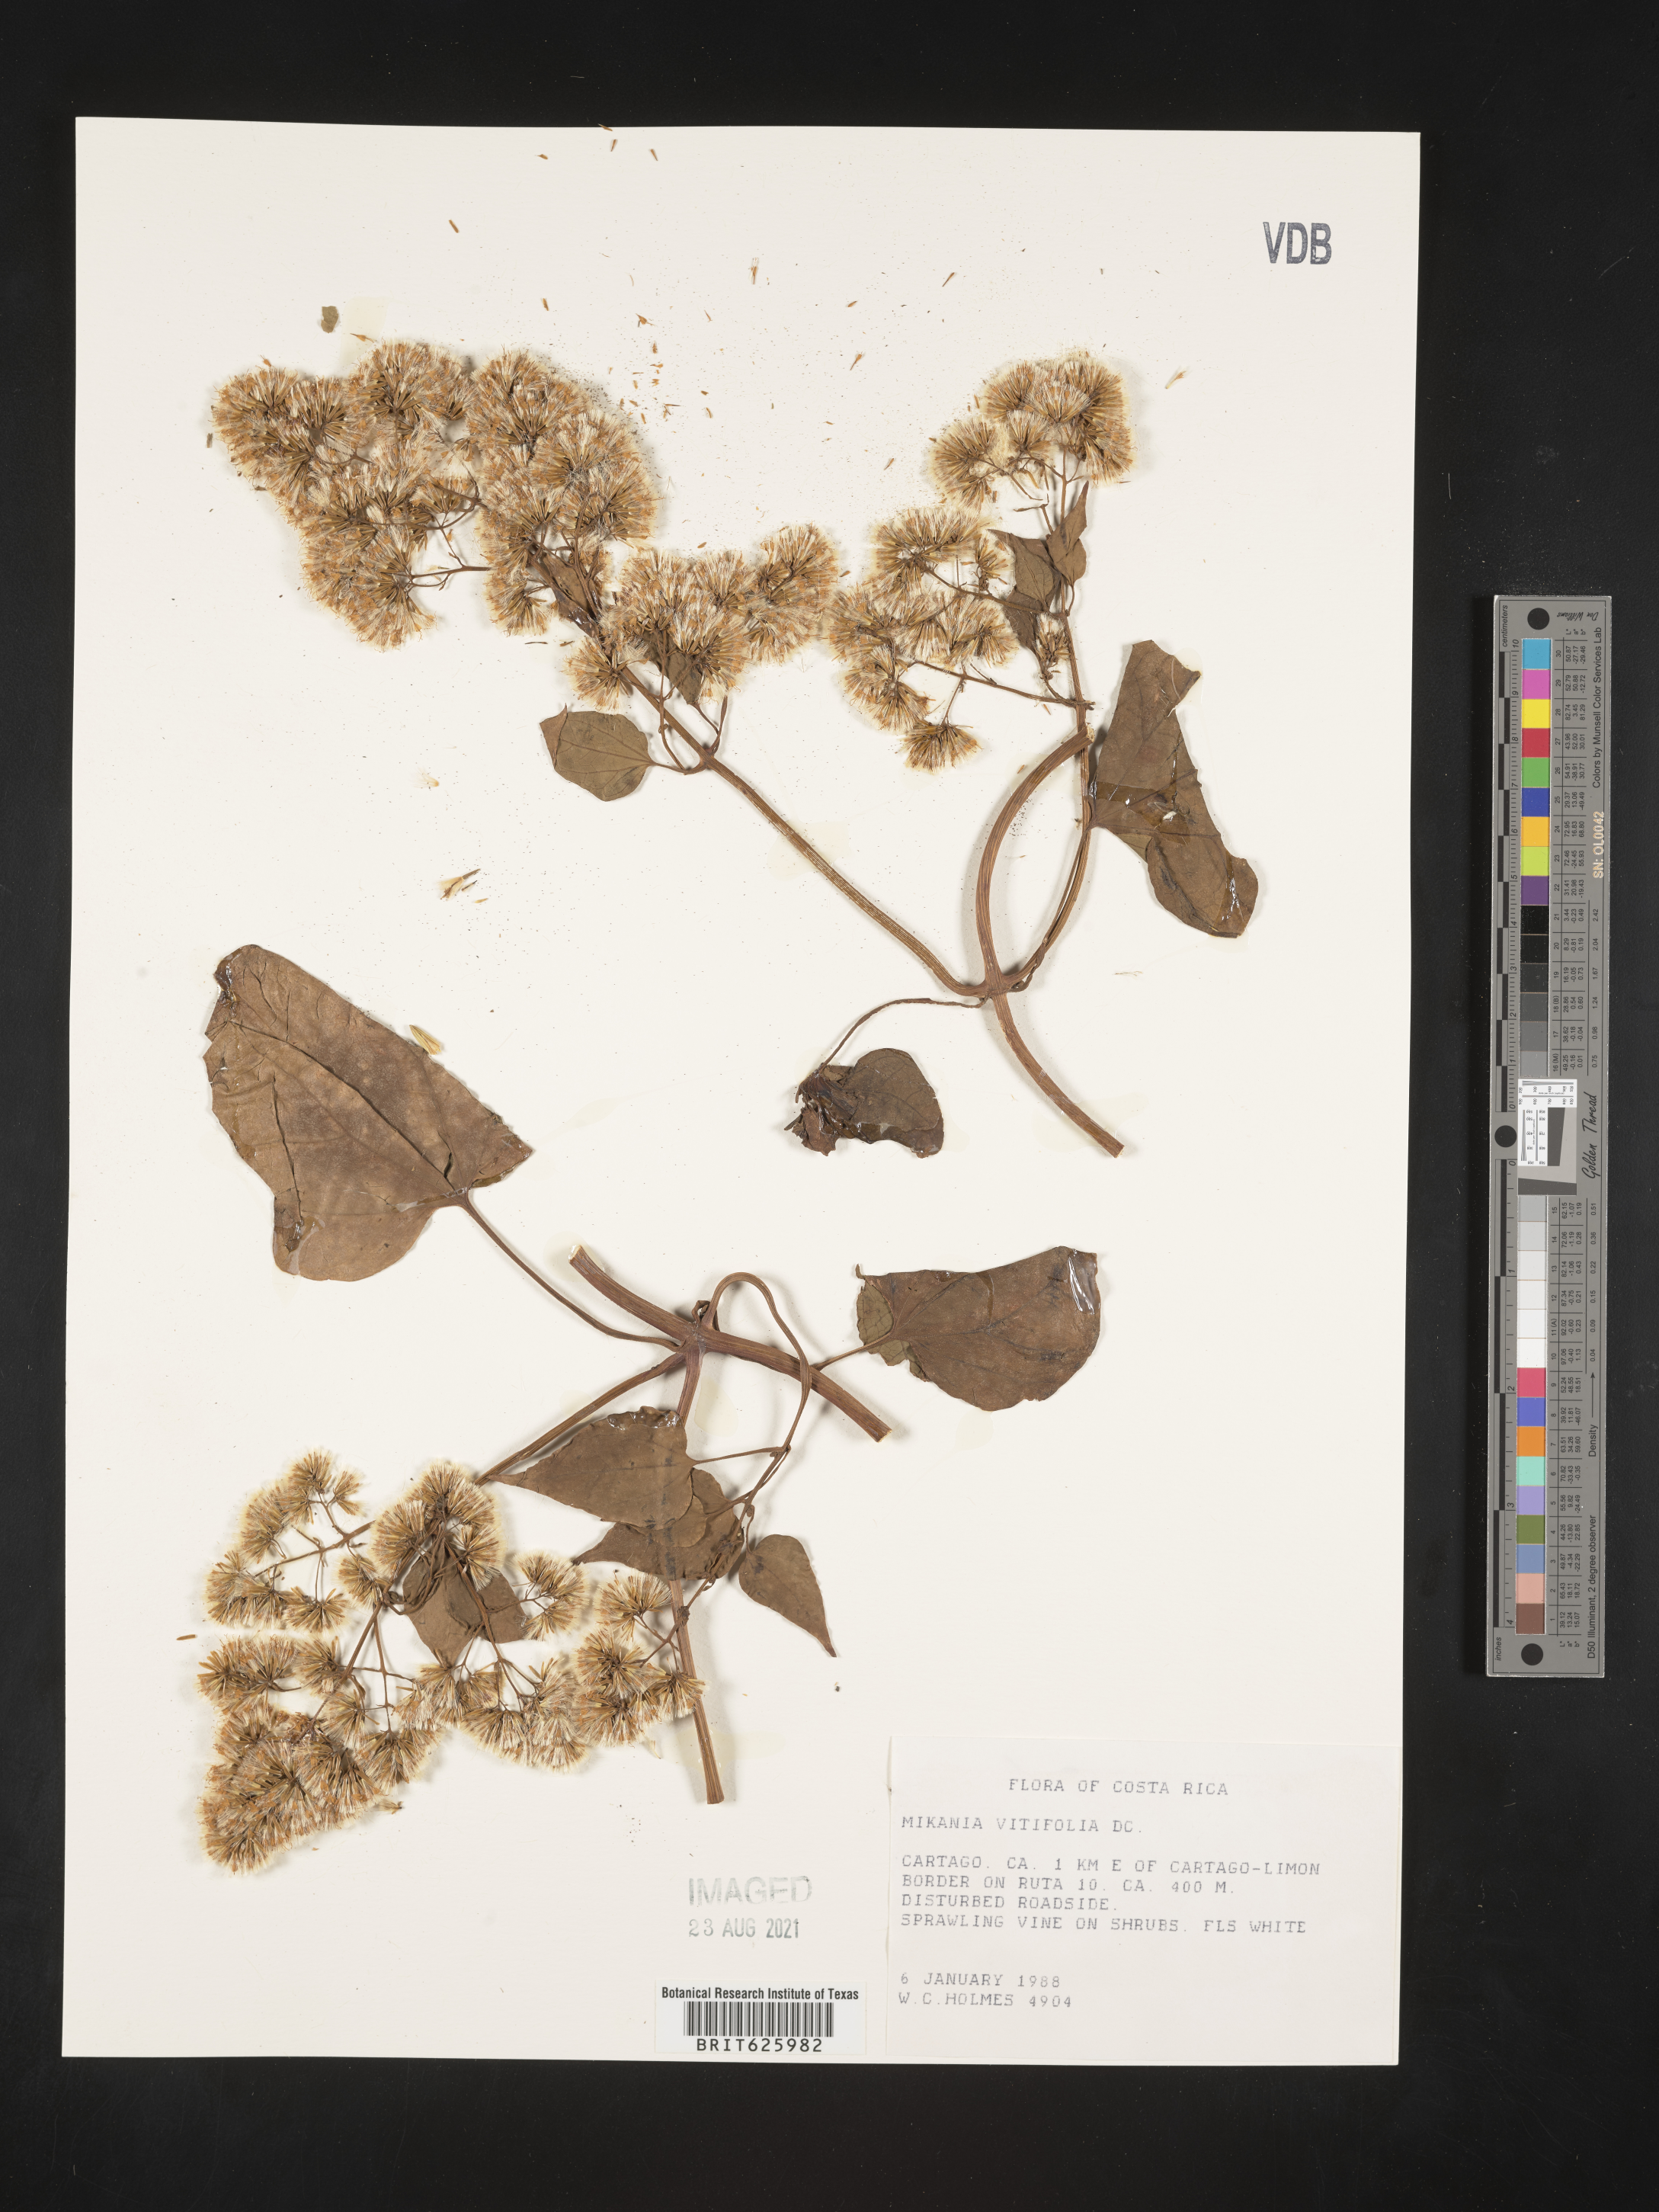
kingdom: Plantae
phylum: Tracheophyta
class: Magnoliopsida
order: Asterales
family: Asteraceae
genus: Mikania
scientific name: Mikania vitifolia
